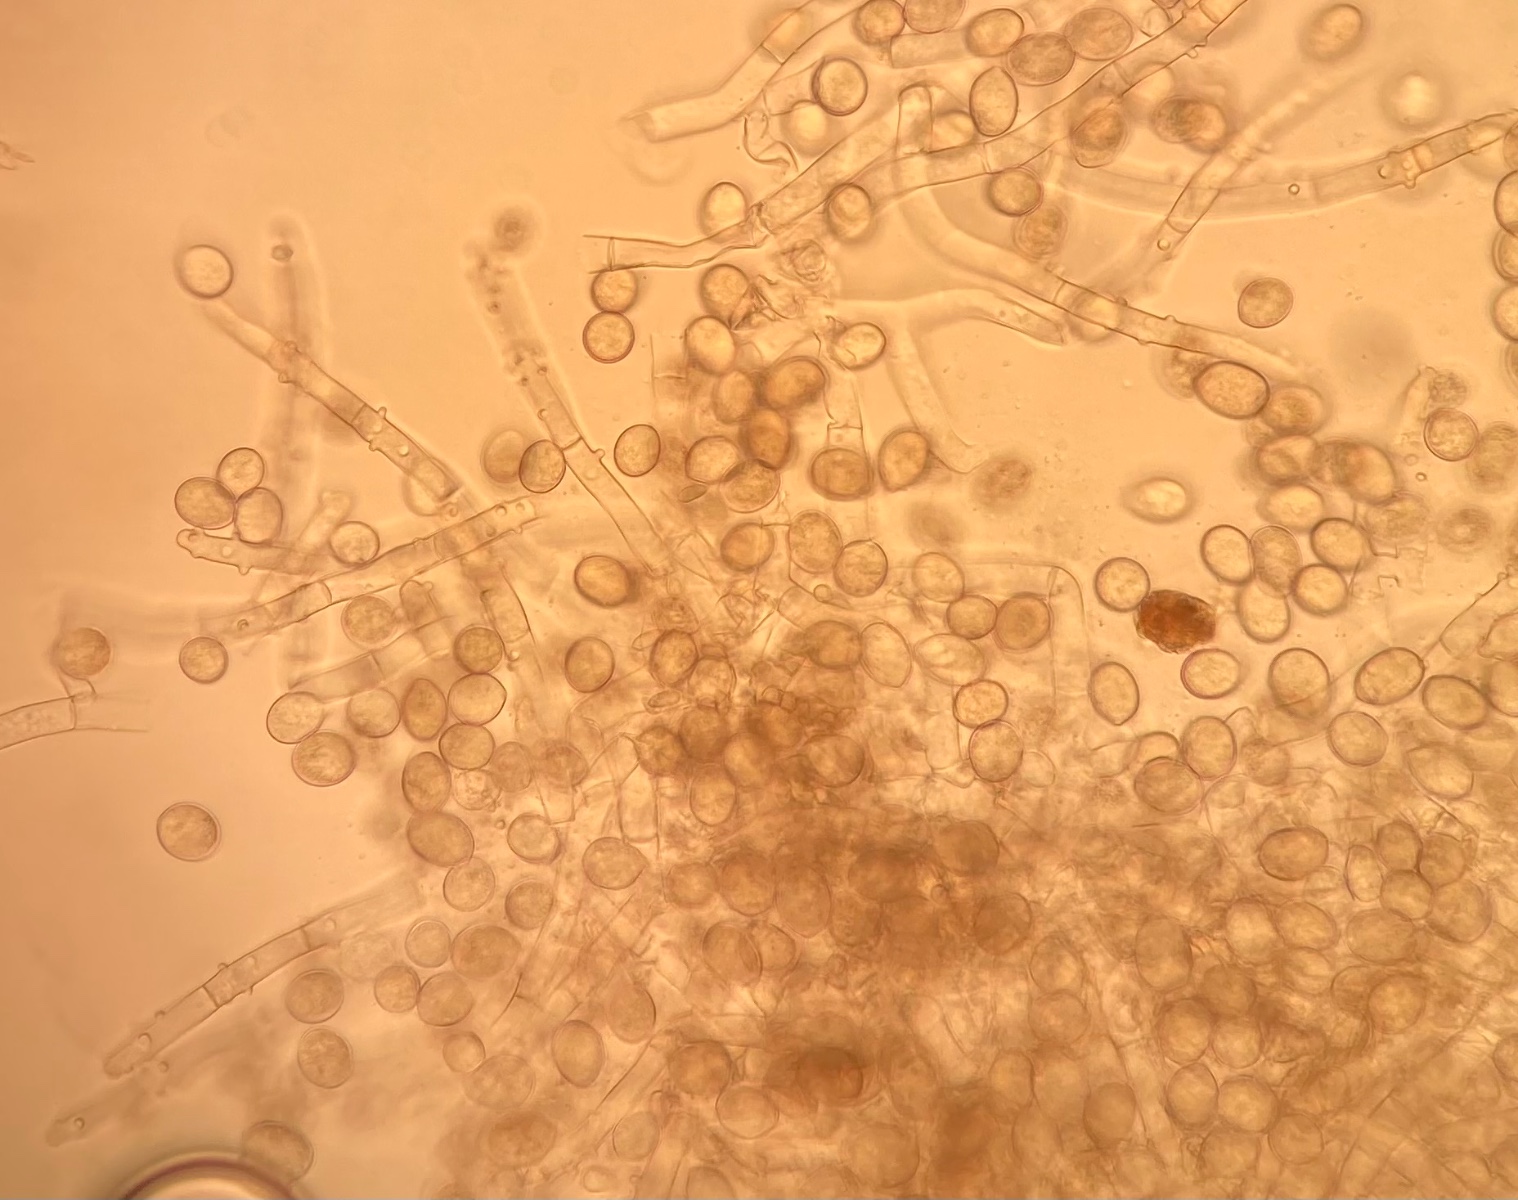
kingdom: Fungi
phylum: Basidiomycota
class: Agaricomycetes
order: Cantharellales
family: Botryobasidiaceae
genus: Botryobasidium
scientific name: Botryobasidium conspersum
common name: olivengrå spindhinde
